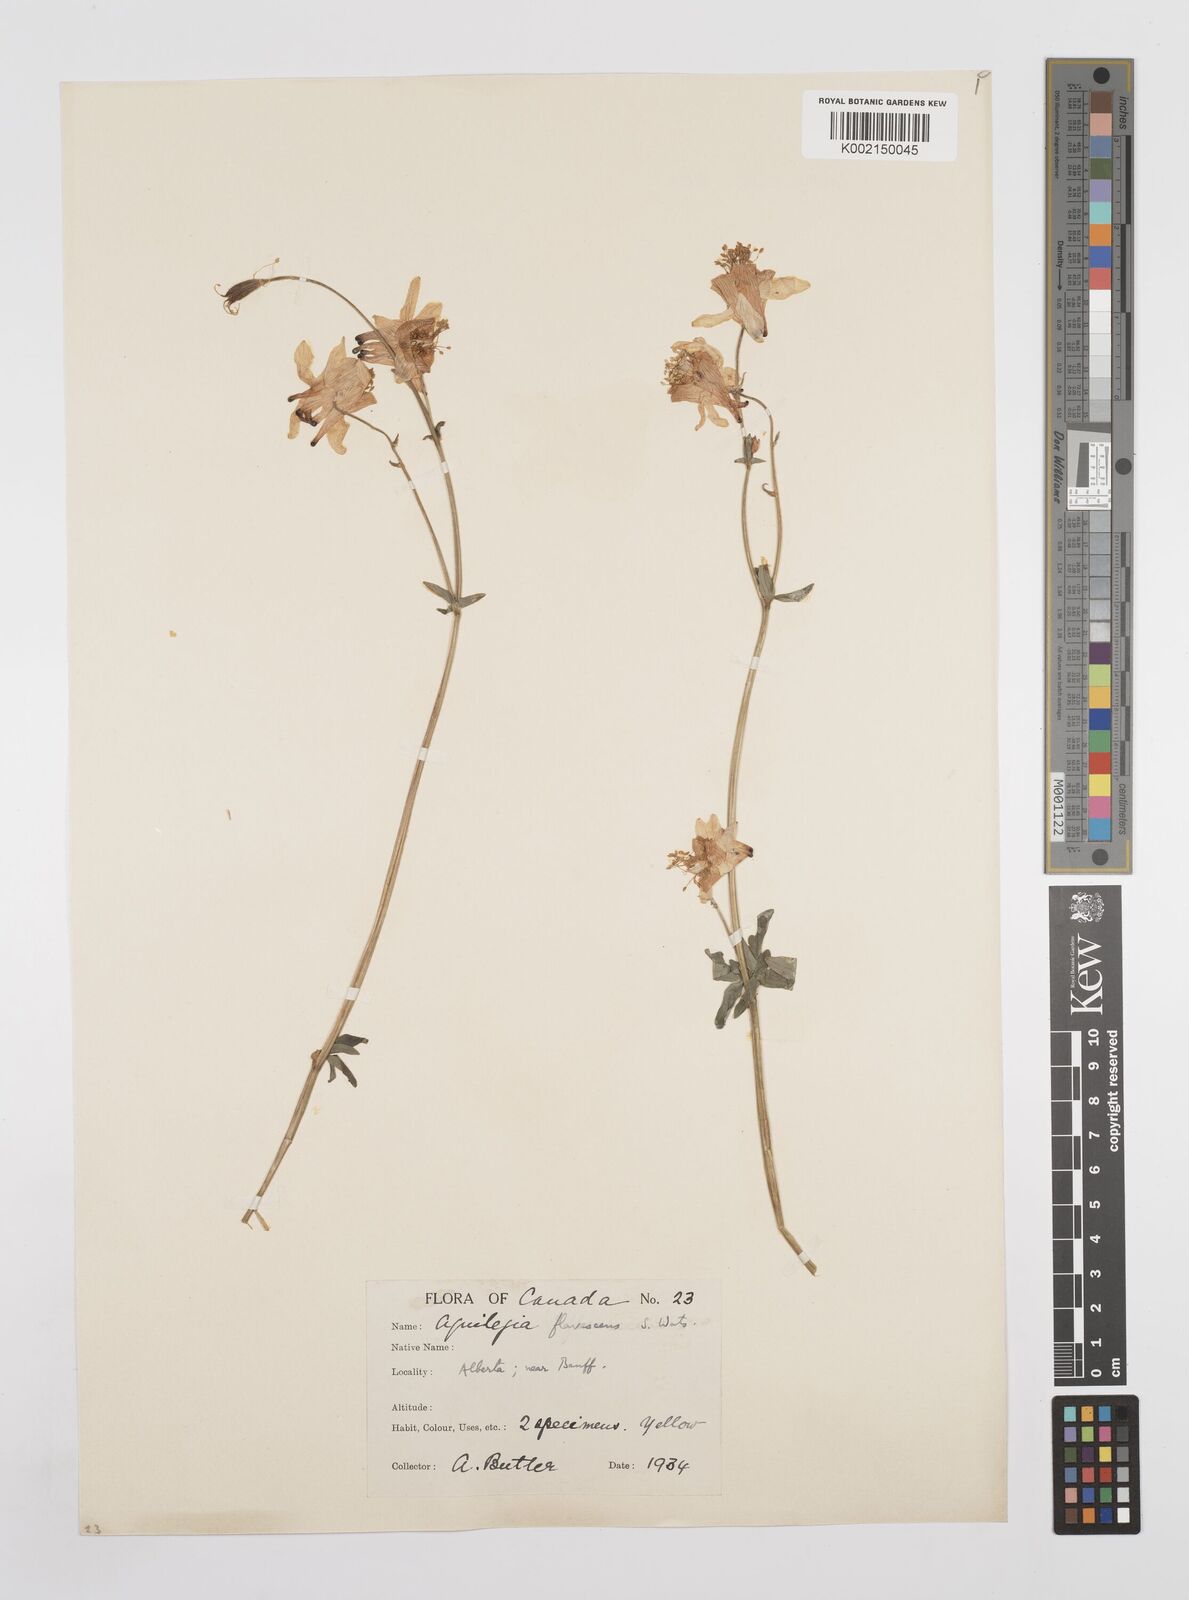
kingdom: Plantae
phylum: Tracheophyta
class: Magnoliopsida
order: Ranunculales
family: Ranunculaceae
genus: Aquilegia
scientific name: Aquilegia flavescens
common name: Yellow columbine
